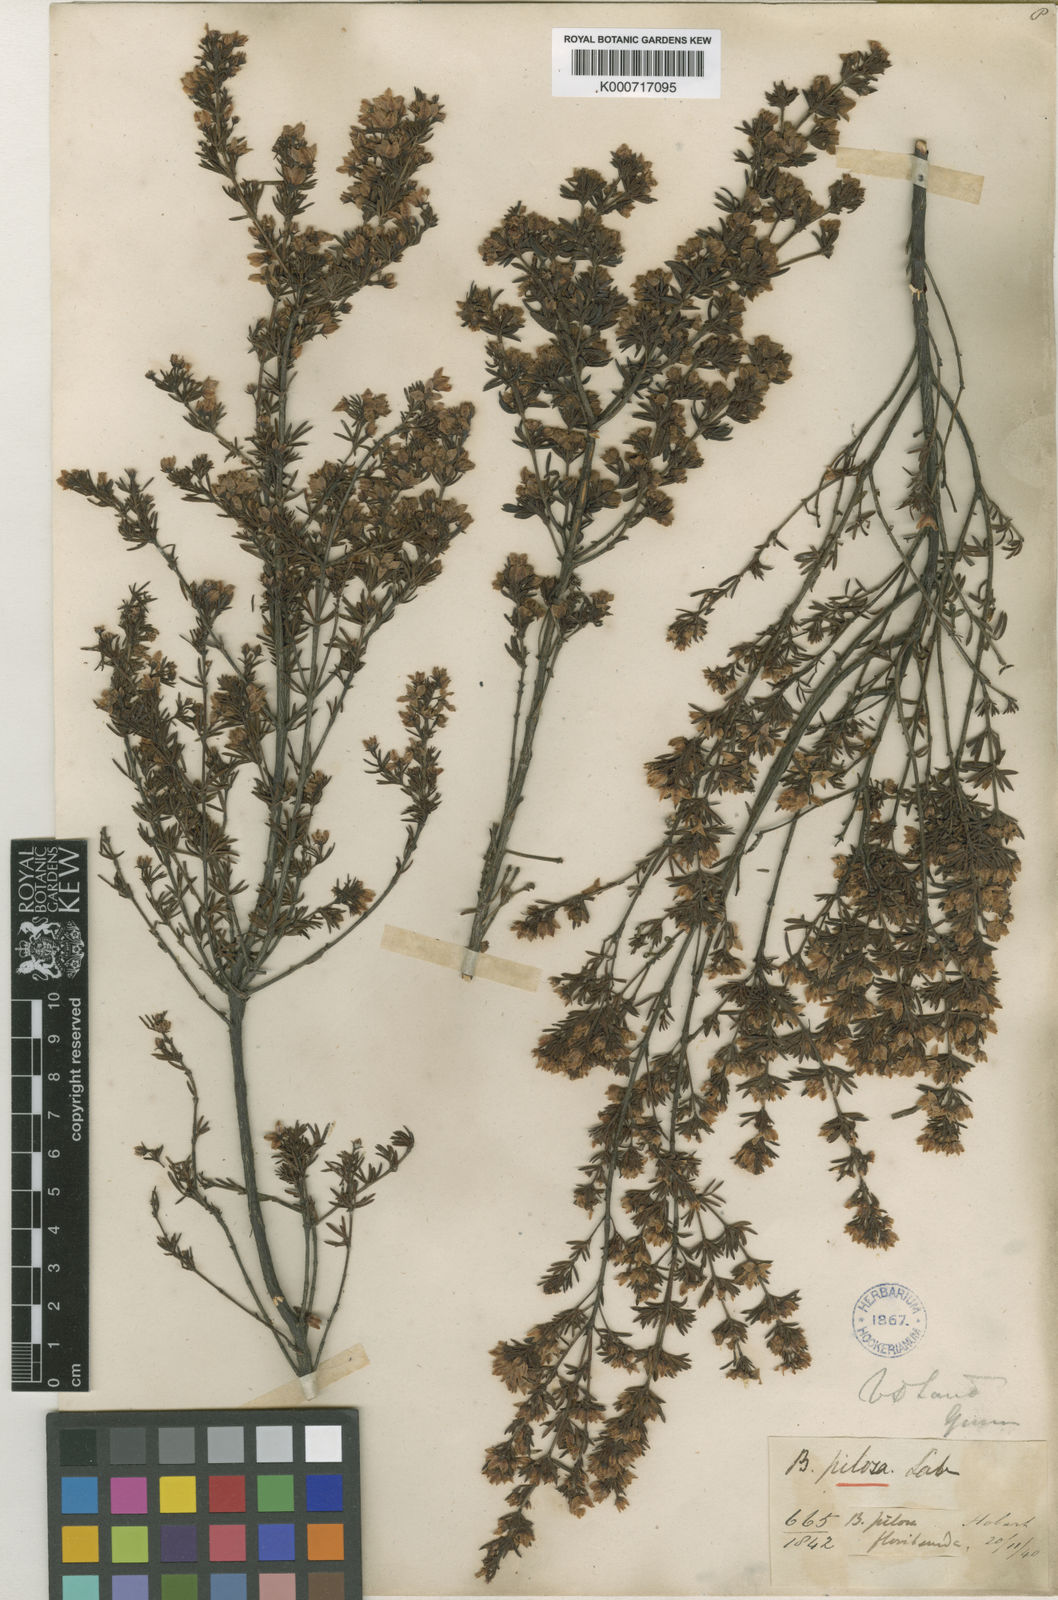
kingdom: Plantae
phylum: Tracheophyta
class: Magnoliopsida
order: Sapindales
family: Rutaceae
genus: Boronia
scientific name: Boronia pilosa
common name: Hairy boronia
